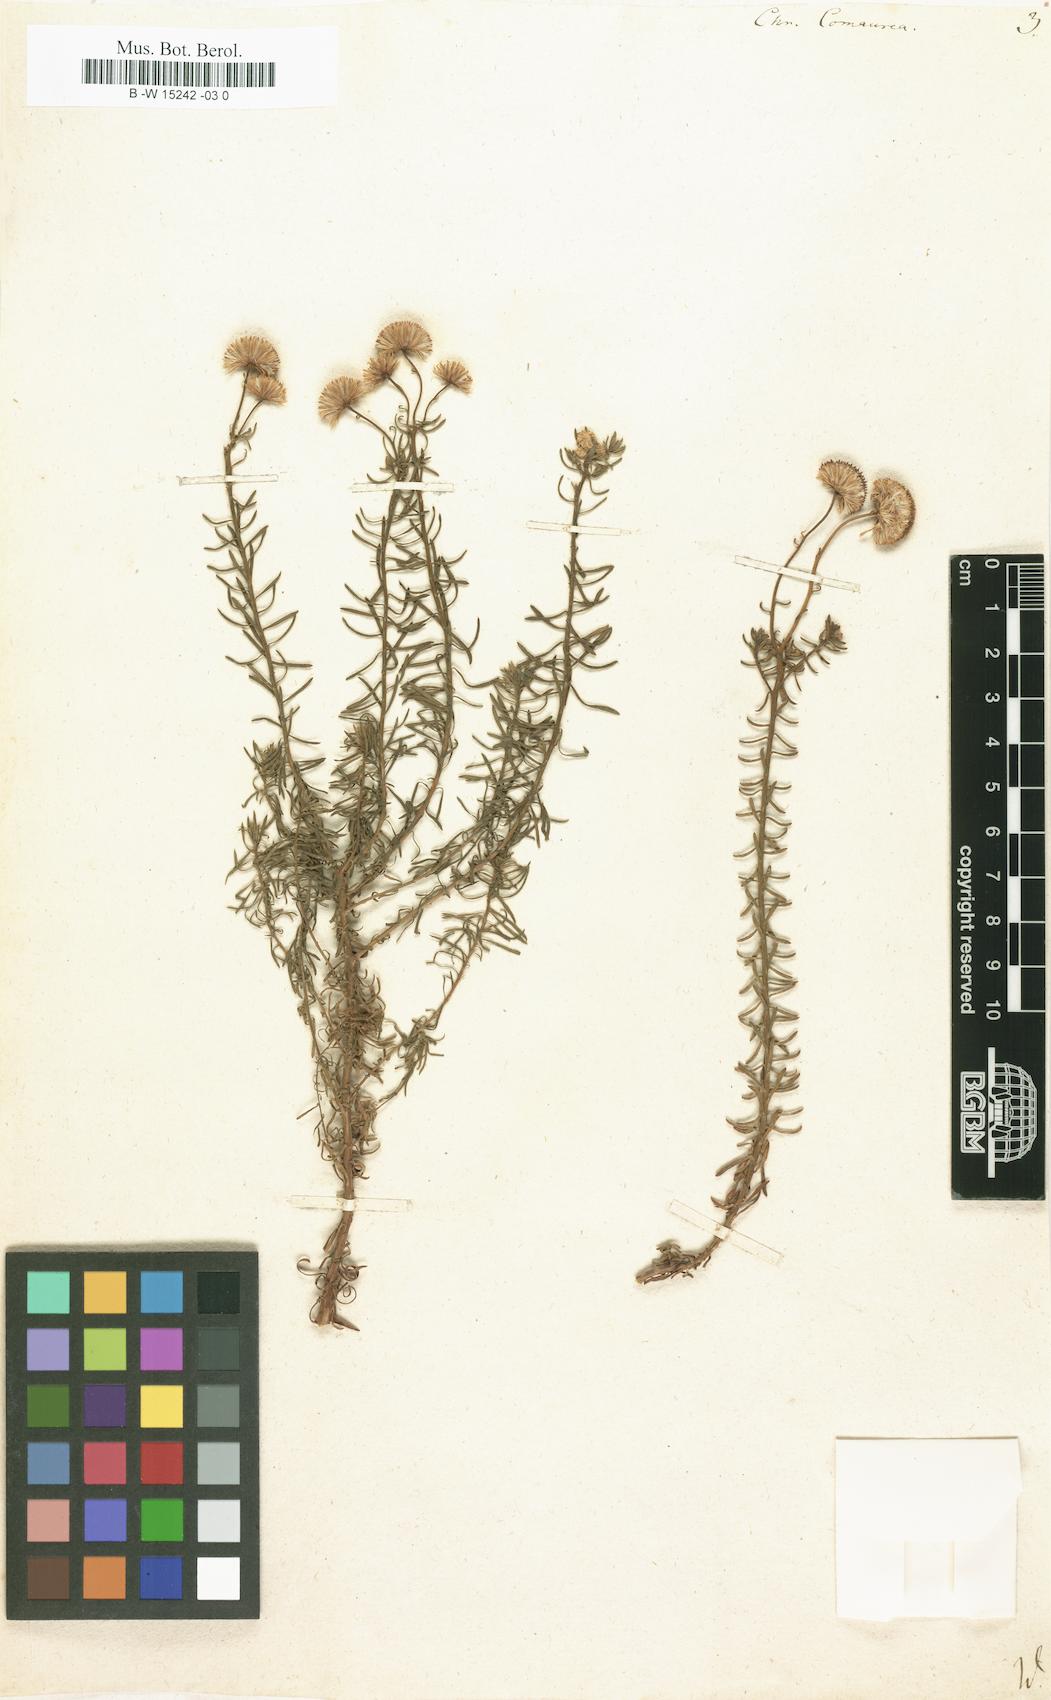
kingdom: Plantae
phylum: Tracheophyta
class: Magnoliopsida
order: Asterales
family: Asteraceae
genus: Chrysocoma
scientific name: Chrysocoma cernua
